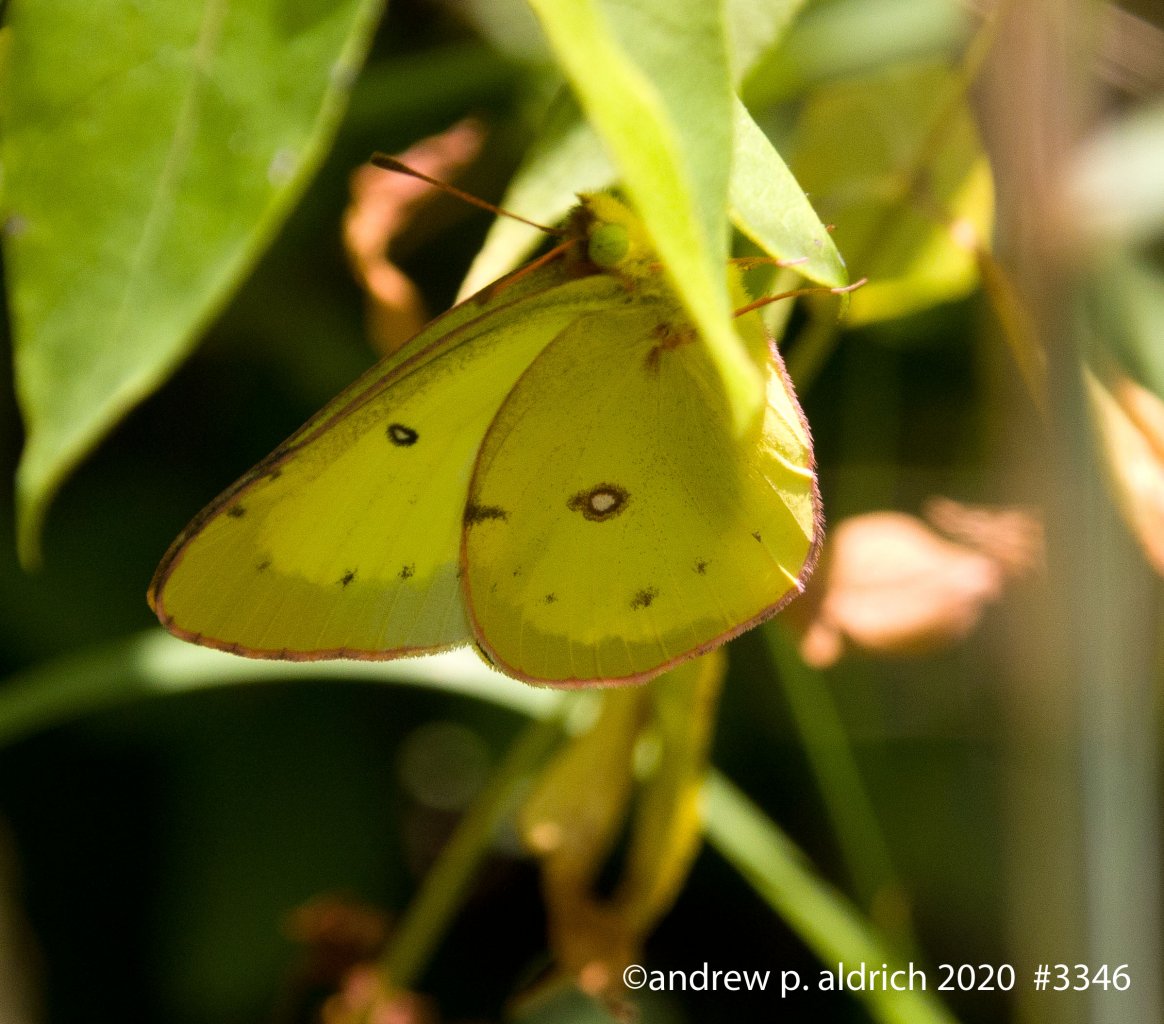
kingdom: Animalia
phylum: Arthropoda
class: Insecta
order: Lepidoptera
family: Pieridae
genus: Colias
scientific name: Colias eurytheme
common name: Orange Sulphur
